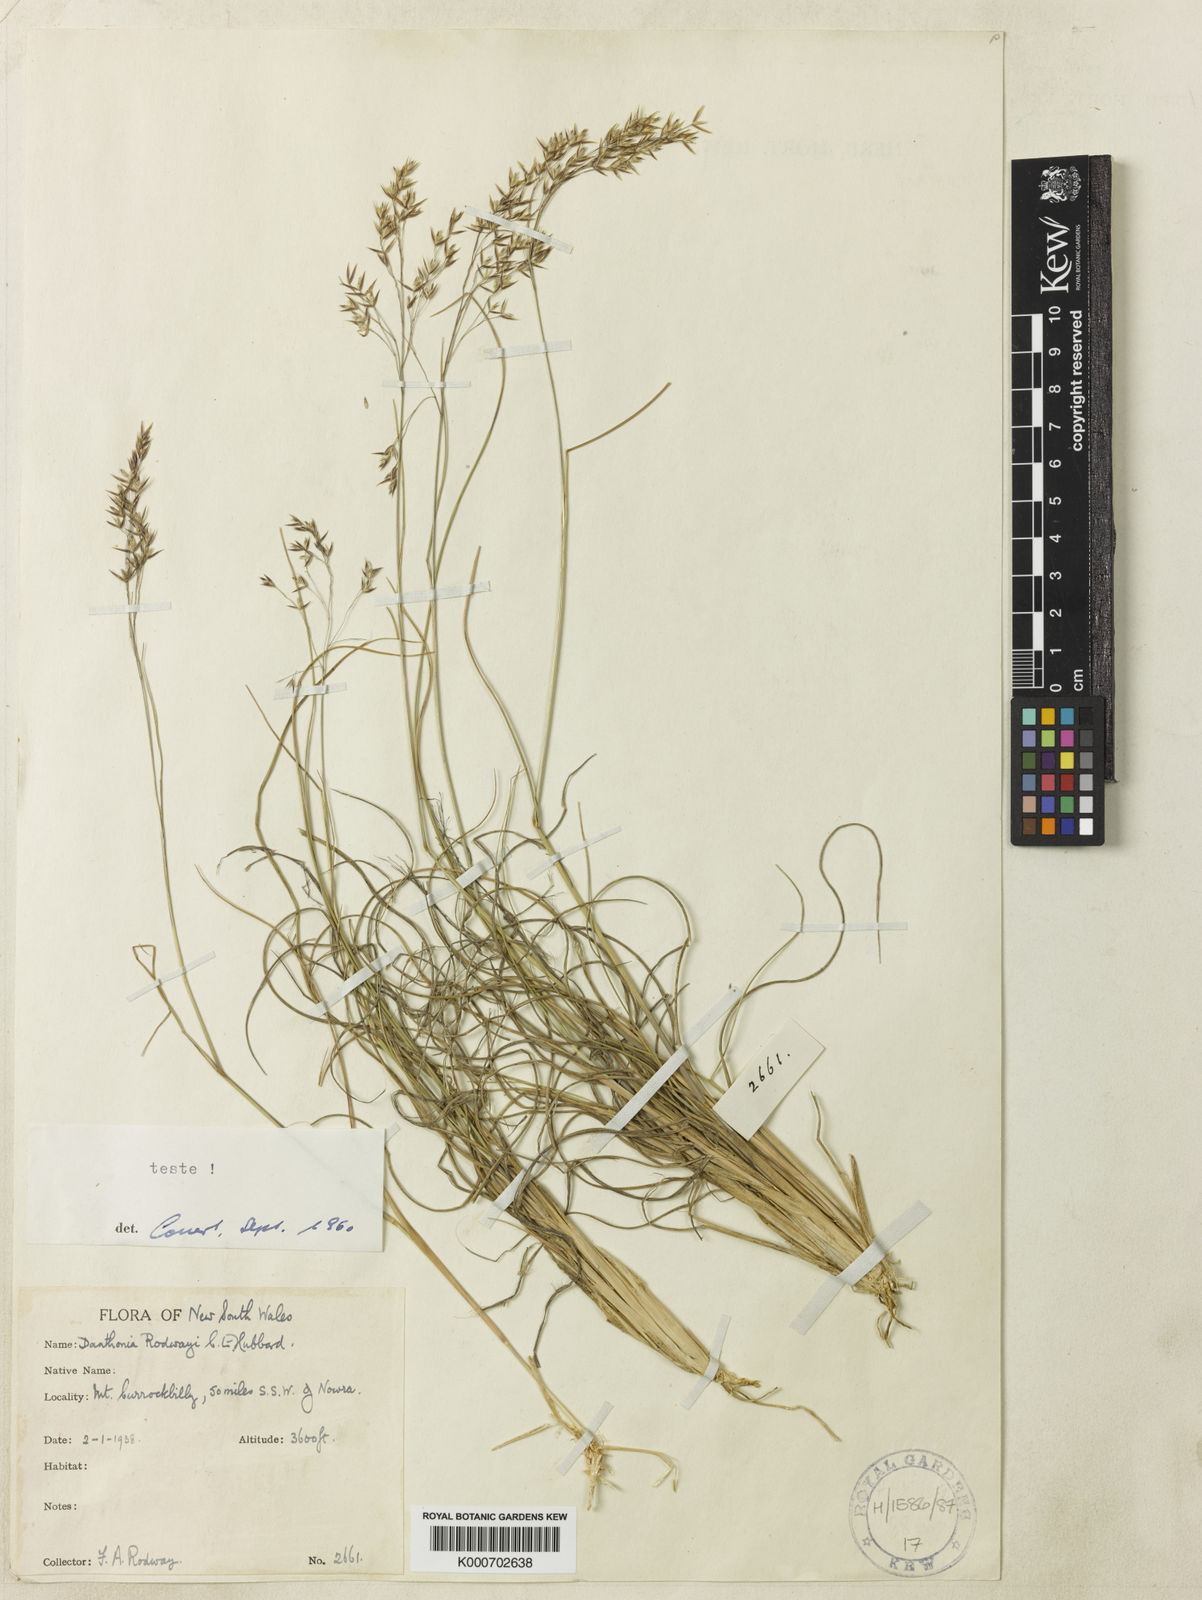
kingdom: Plantae
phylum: Tracheophyta
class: Liliopsida
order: Poales
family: Poaceae
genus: Plinthanthesis
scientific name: Plinthanthesis rodwayi
